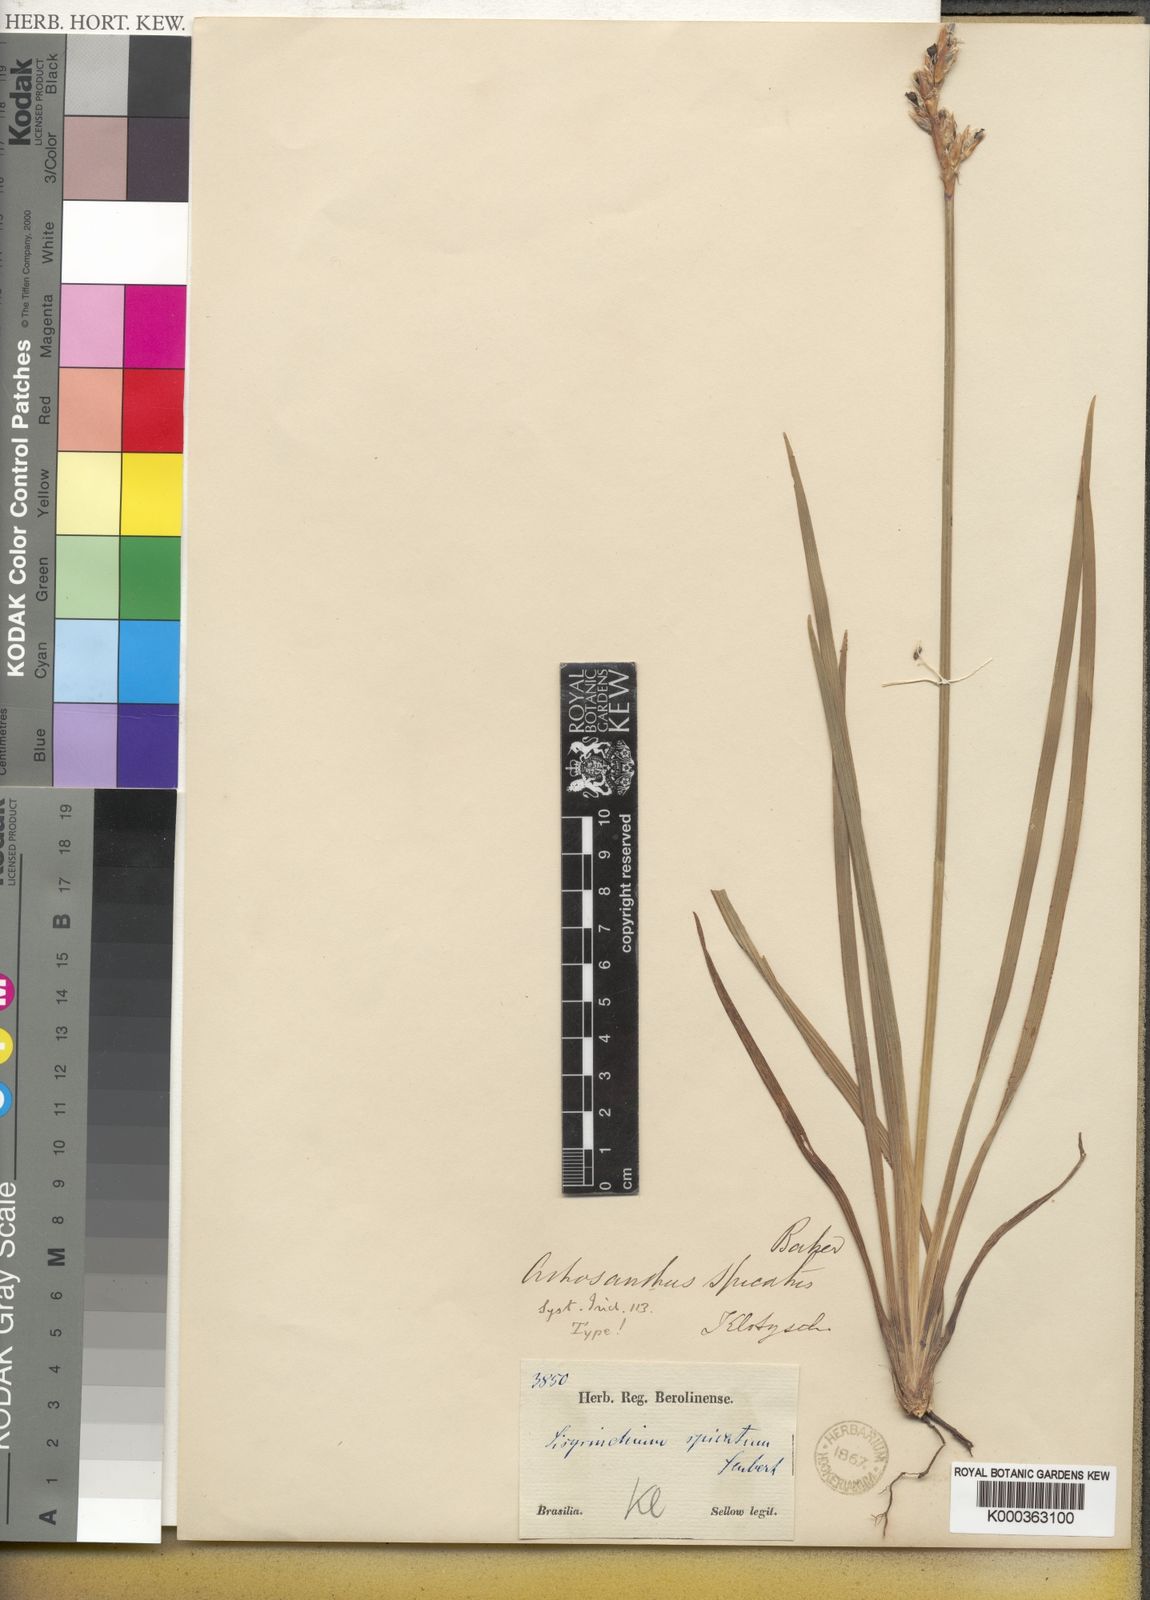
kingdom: Plantae
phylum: Tracheophyta
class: Liliopsida
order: Asparagales
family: Iridaceae
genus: Sisyrinchium
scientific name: Sisyrinchium
